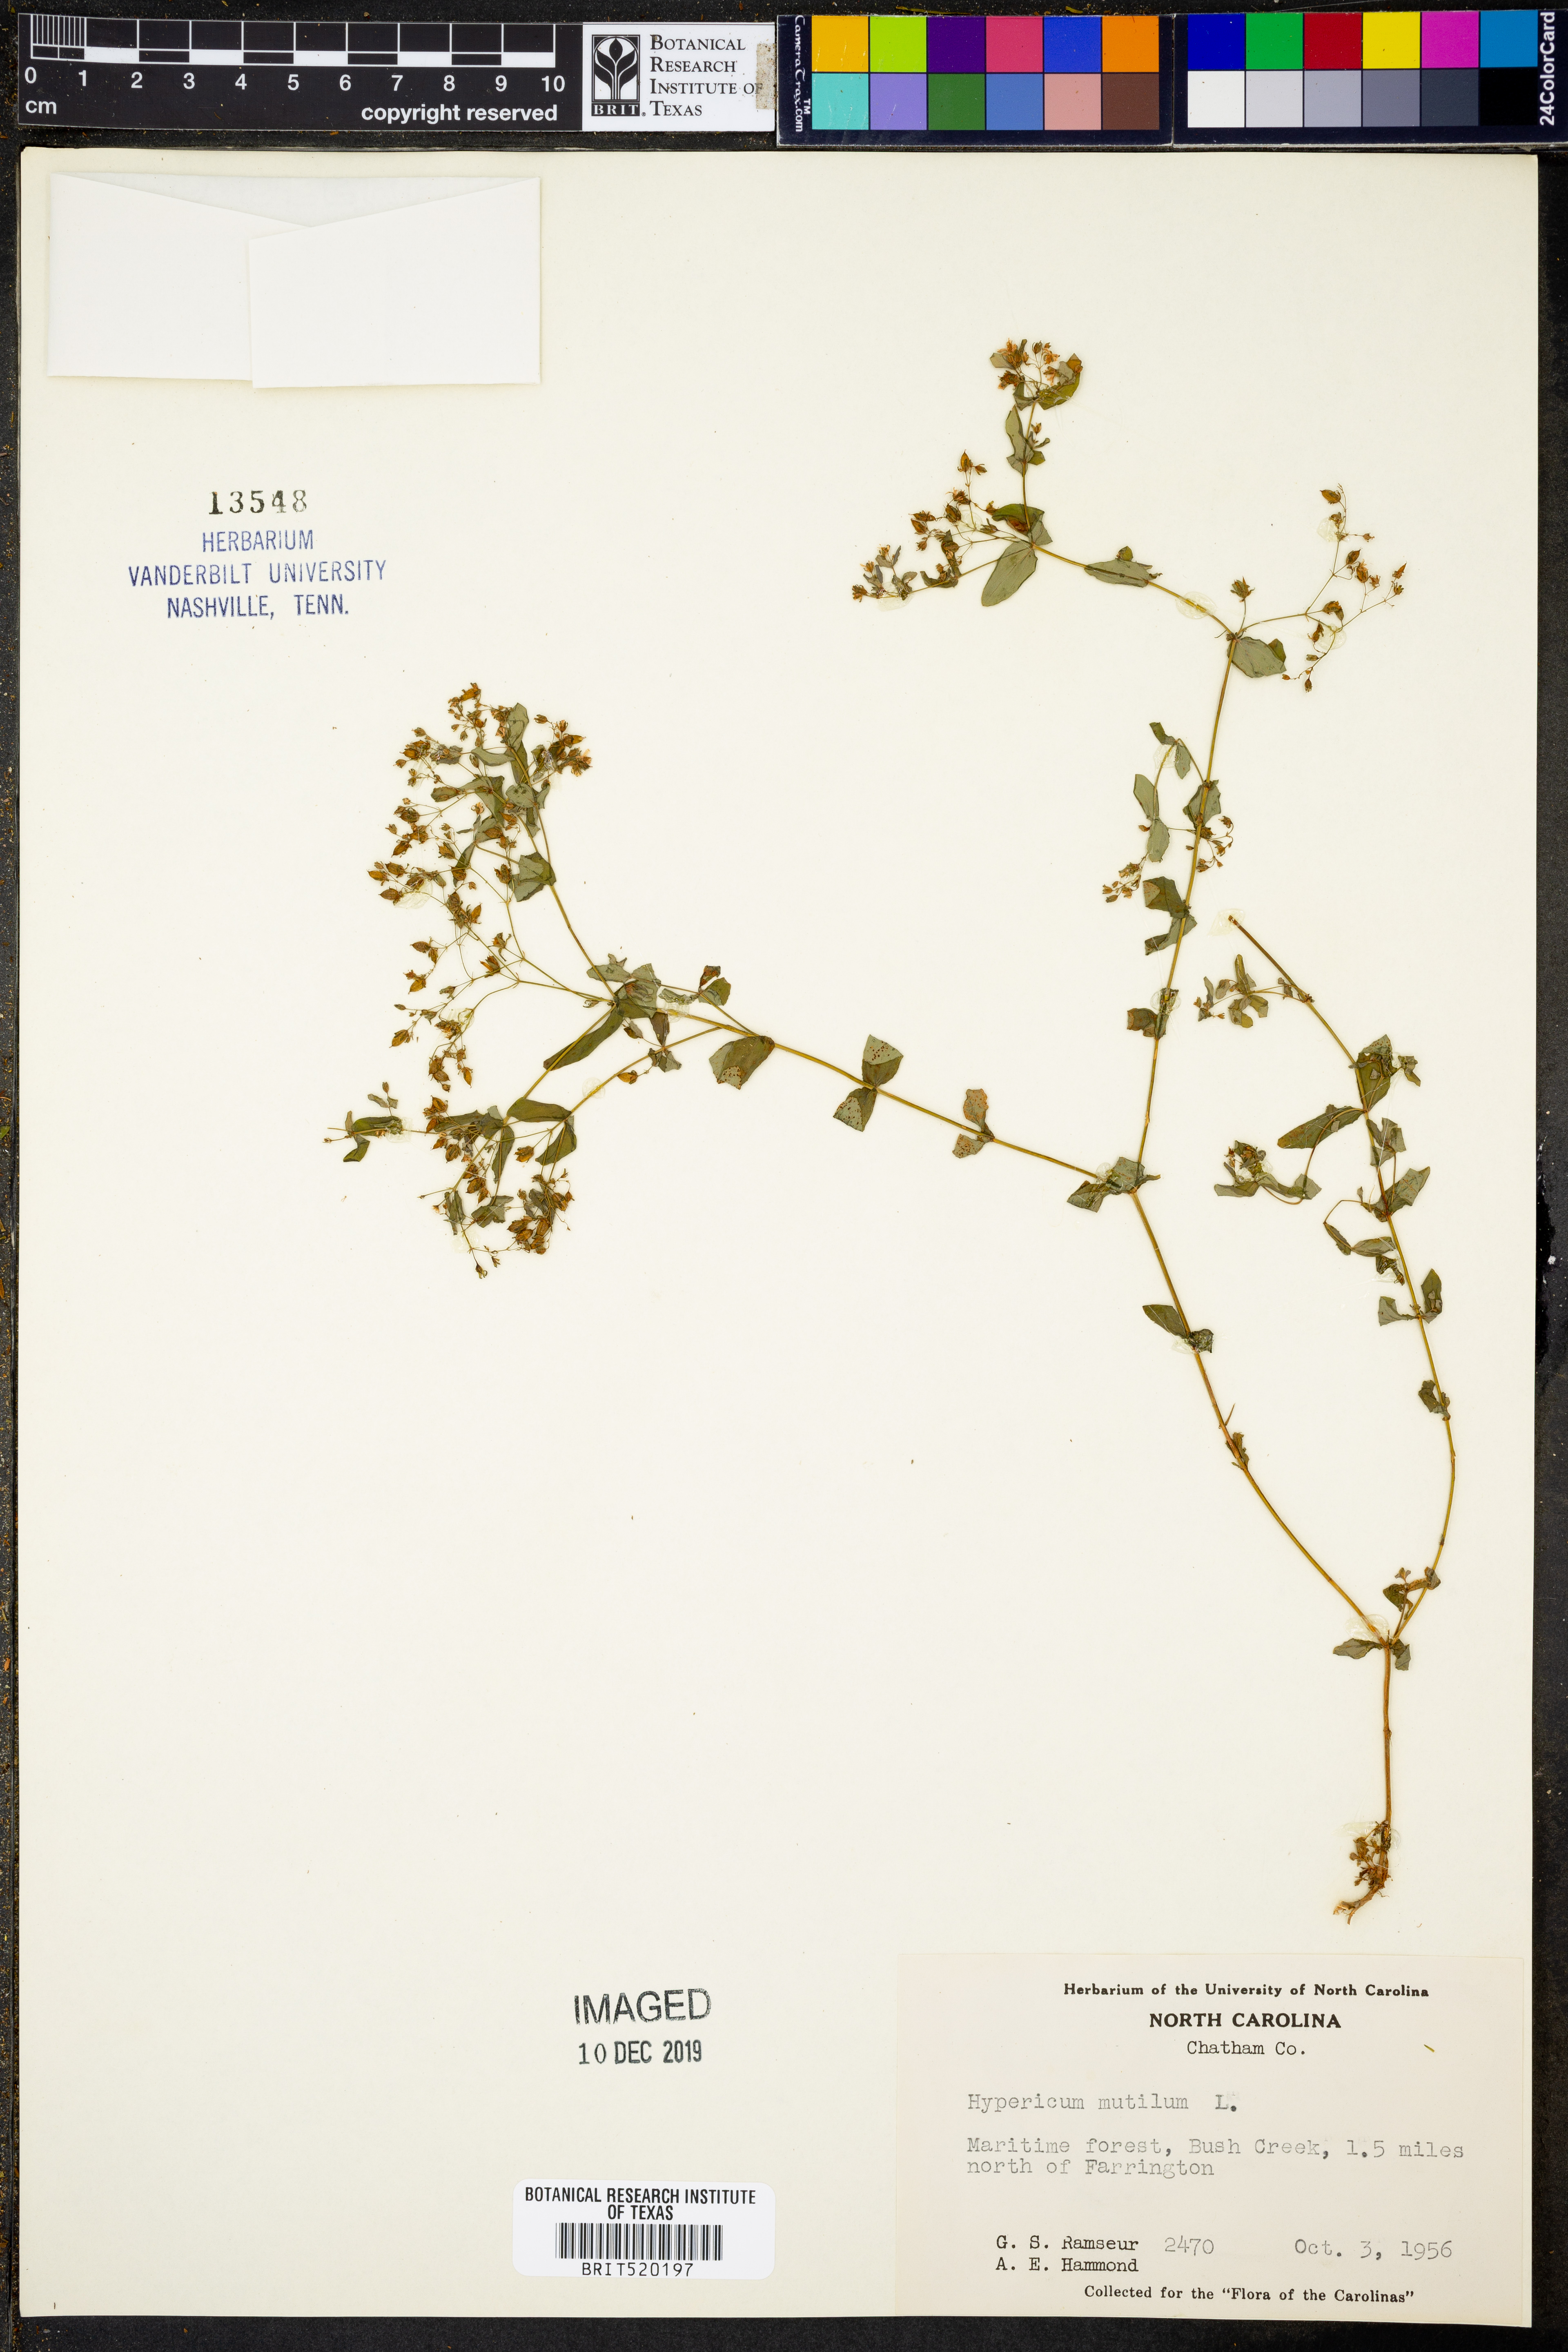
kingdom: Plantae
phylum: Tracheophyta
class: Magnoliopsida
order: Malpighiales
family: Hypericaceae
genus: Hypericum
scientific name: Hypericum mutilum
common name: Dwarf st. john's-wort
